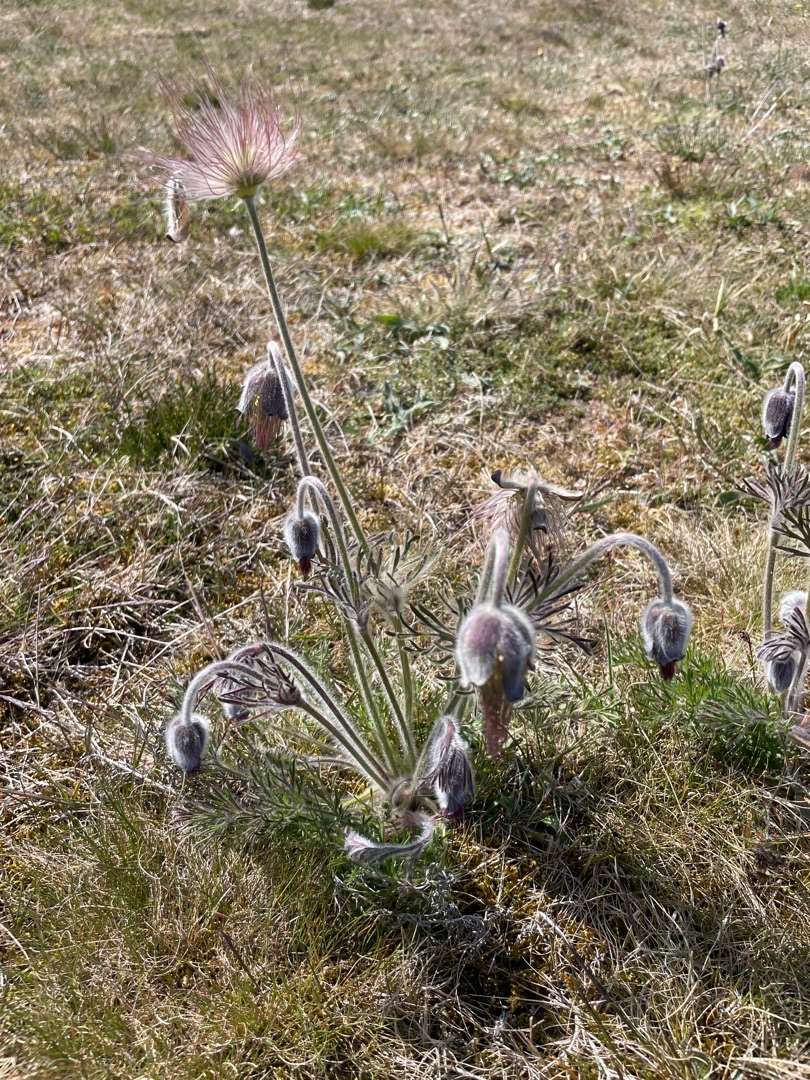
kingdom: Plantae
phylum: Tracheophyta
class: Magnoliopsida
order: Ranunculales
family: Ranunculaceae
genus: Pulsatilla
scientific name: Pulsatilla pratensis
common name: Nikkende kobjælde
